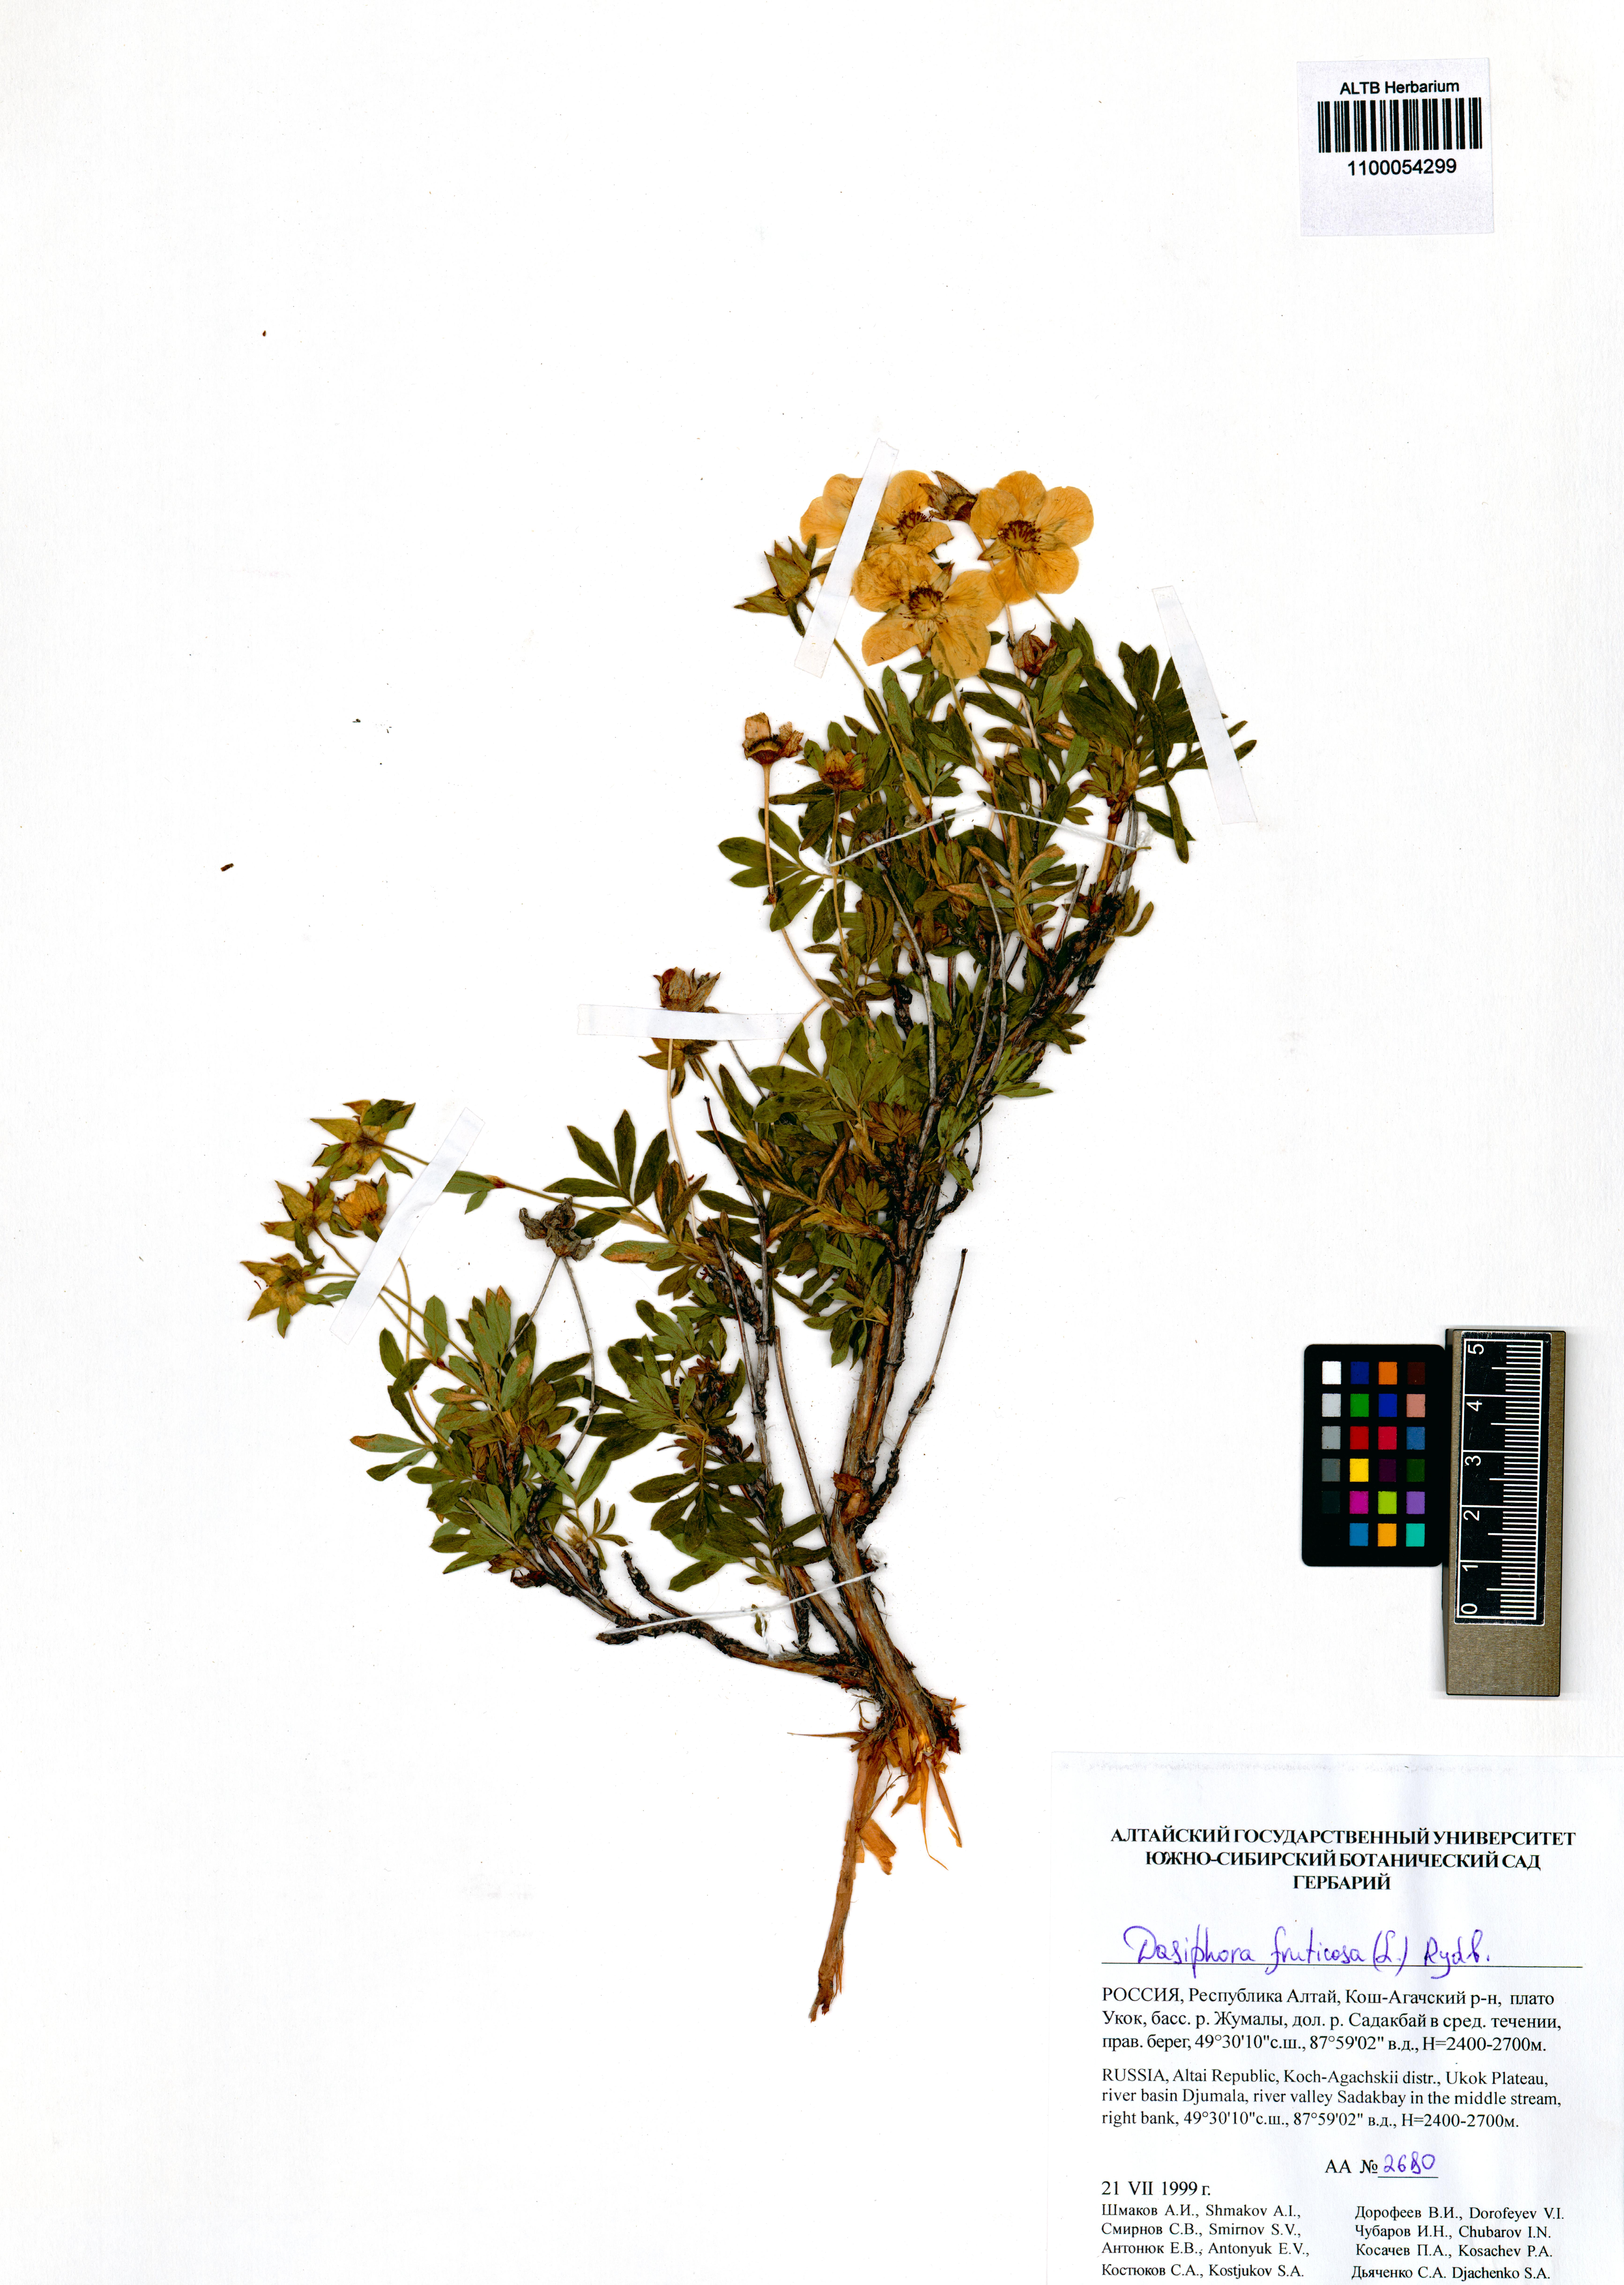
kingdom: Plantae
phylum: Tracheophyta
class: Magnoliopsida
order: Rosales
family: Rosaceae
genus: Dasiphora
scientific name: Dasiphora fruticosa
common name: Shrubby cinquefoil
